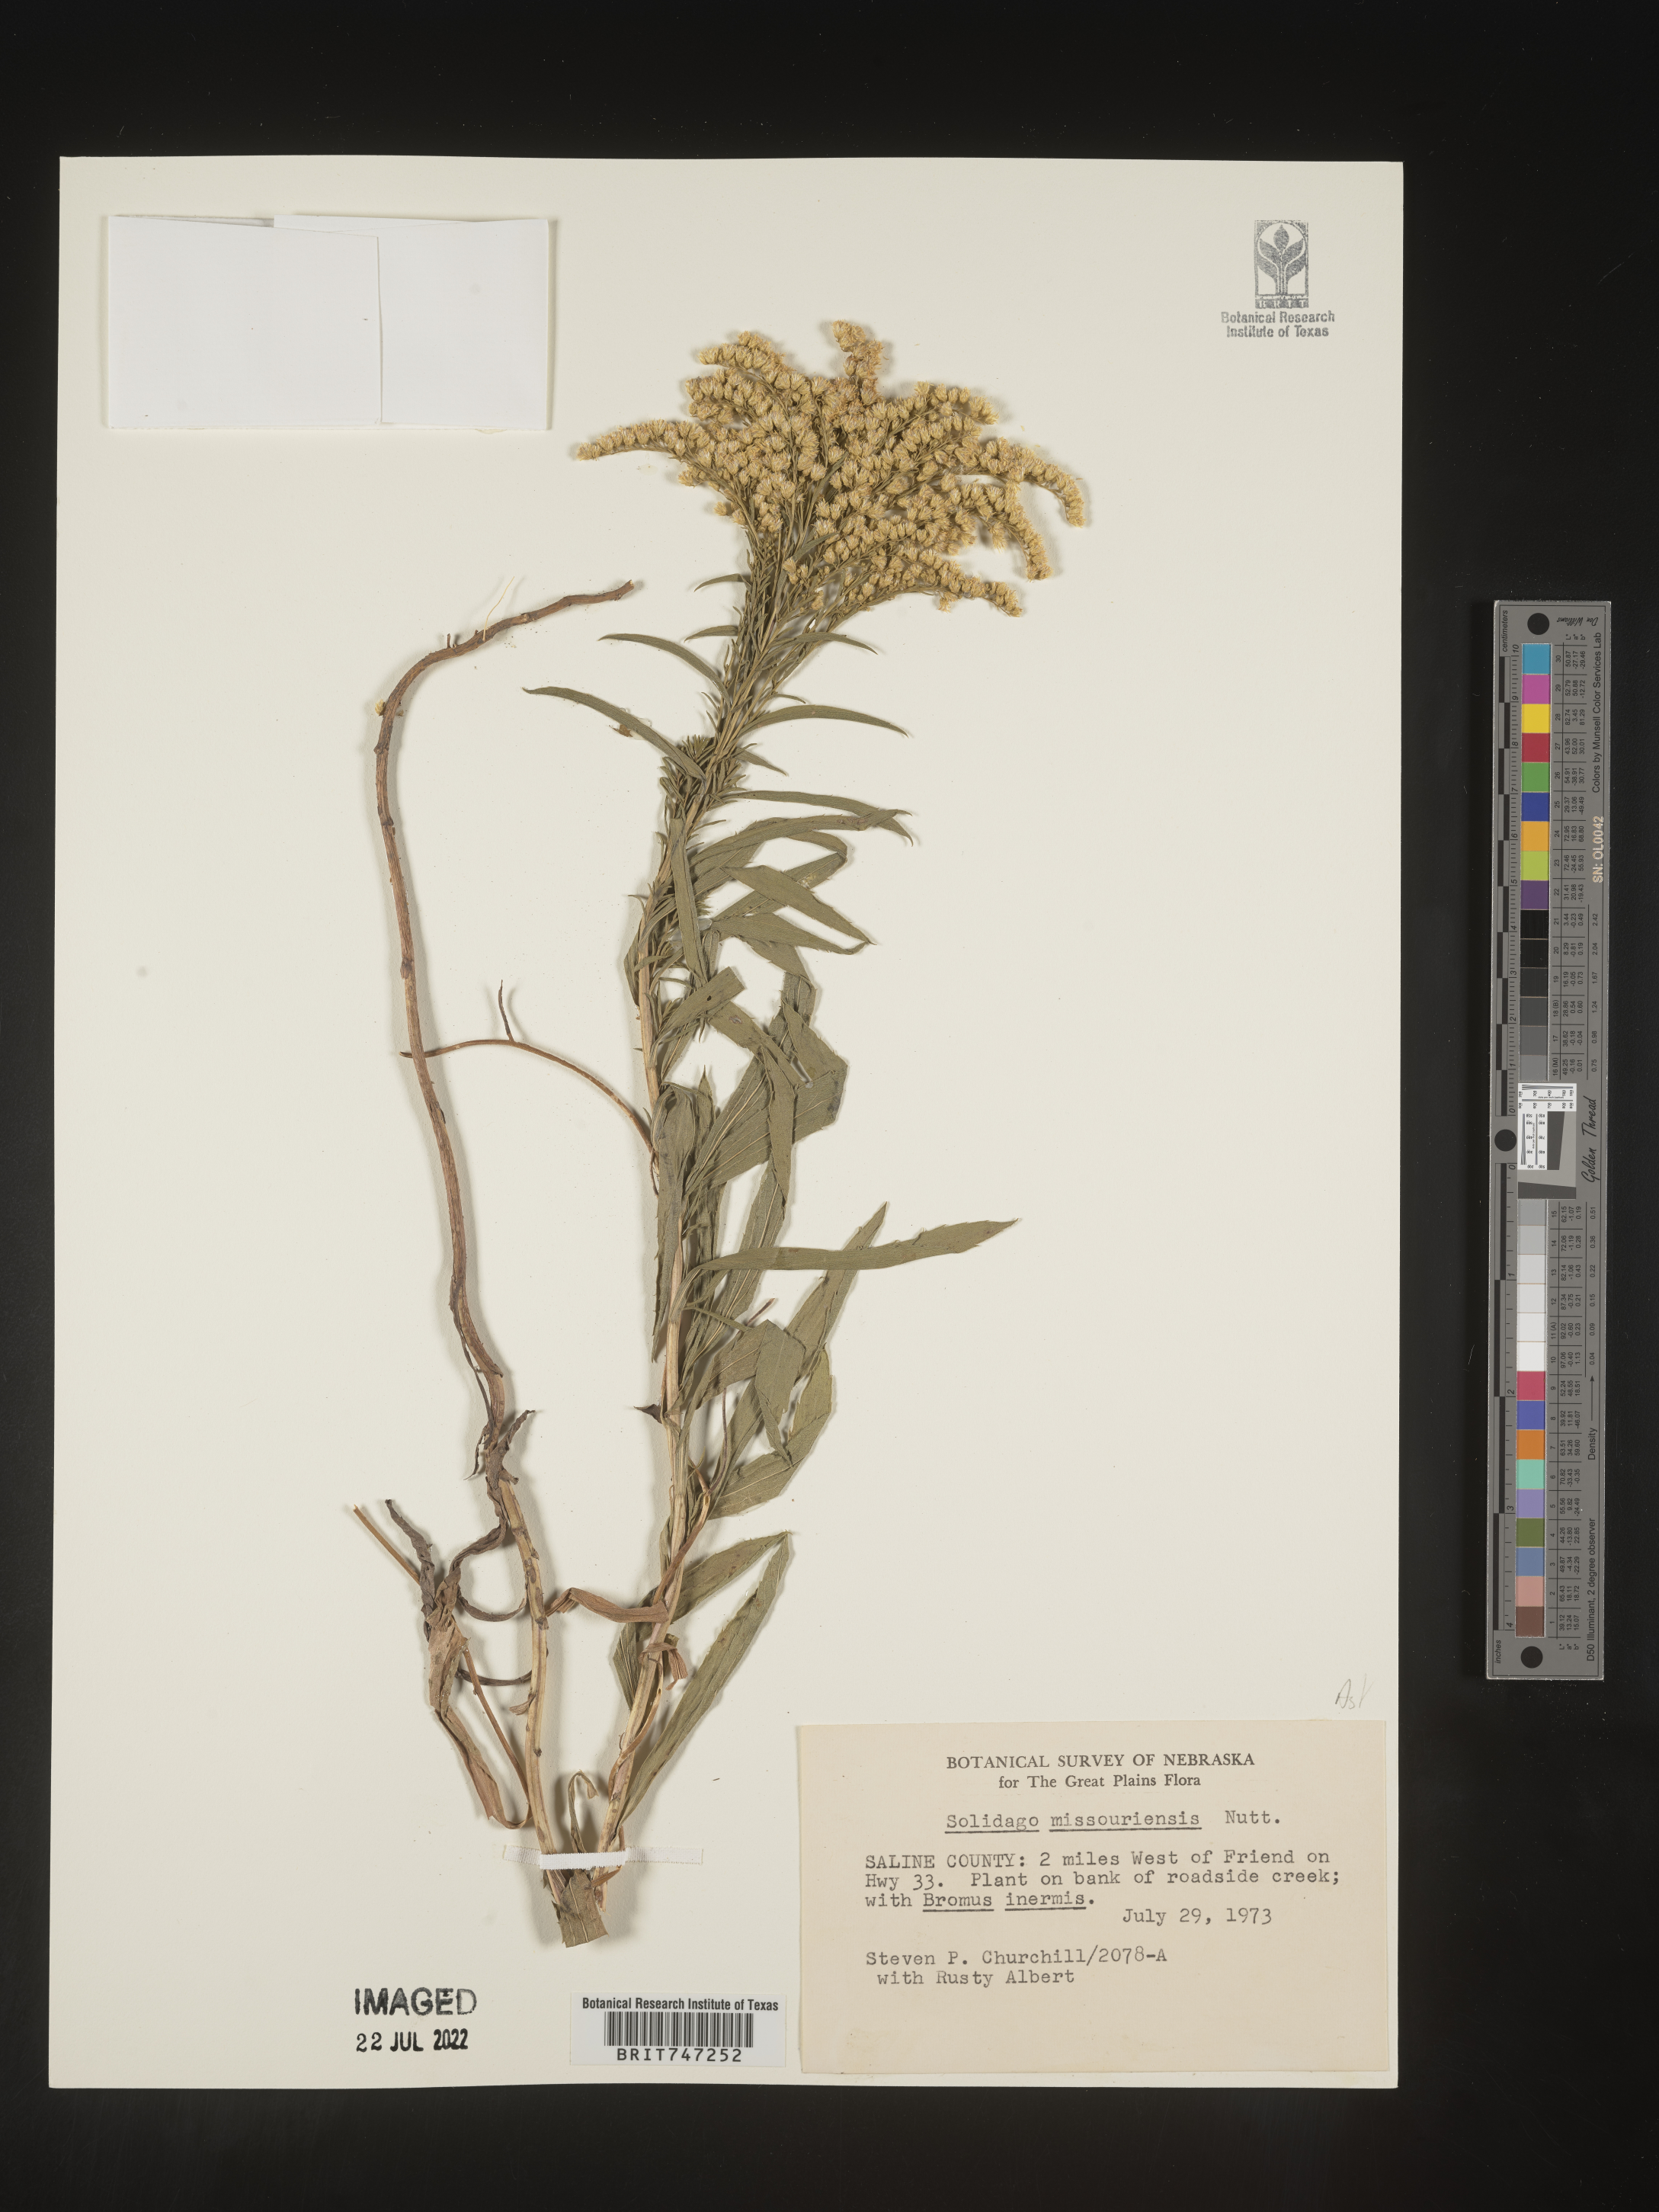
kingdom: Plantae
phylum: Tracheophyta
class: Magnoliopsida
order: Asterales
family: Asteraceae
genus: Solidago
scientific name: Solidago missouriensis
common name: Prairie goldenrod
